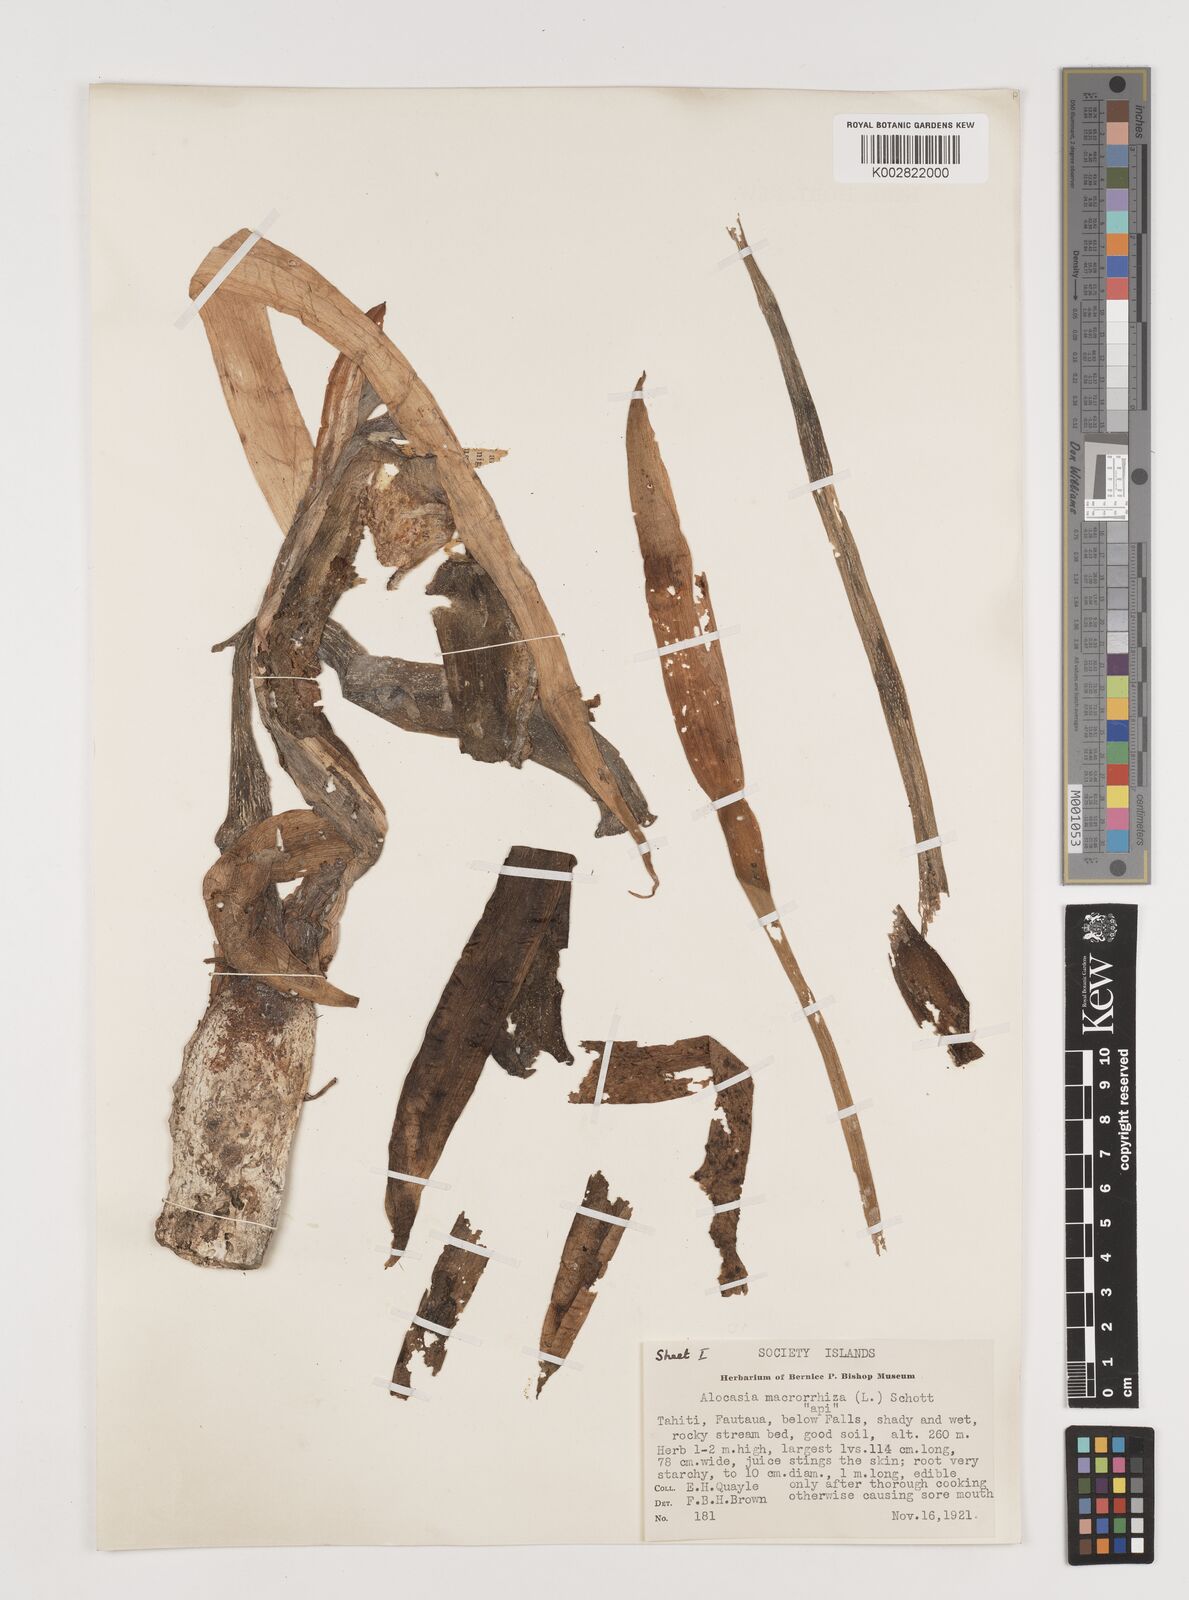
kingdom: Plantae
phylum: Tracheophyta
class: Liliopsida
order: Alismatales
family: Araceae
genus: Alocasia
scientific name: Alocasia macrorrhizos
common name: Giant taro
